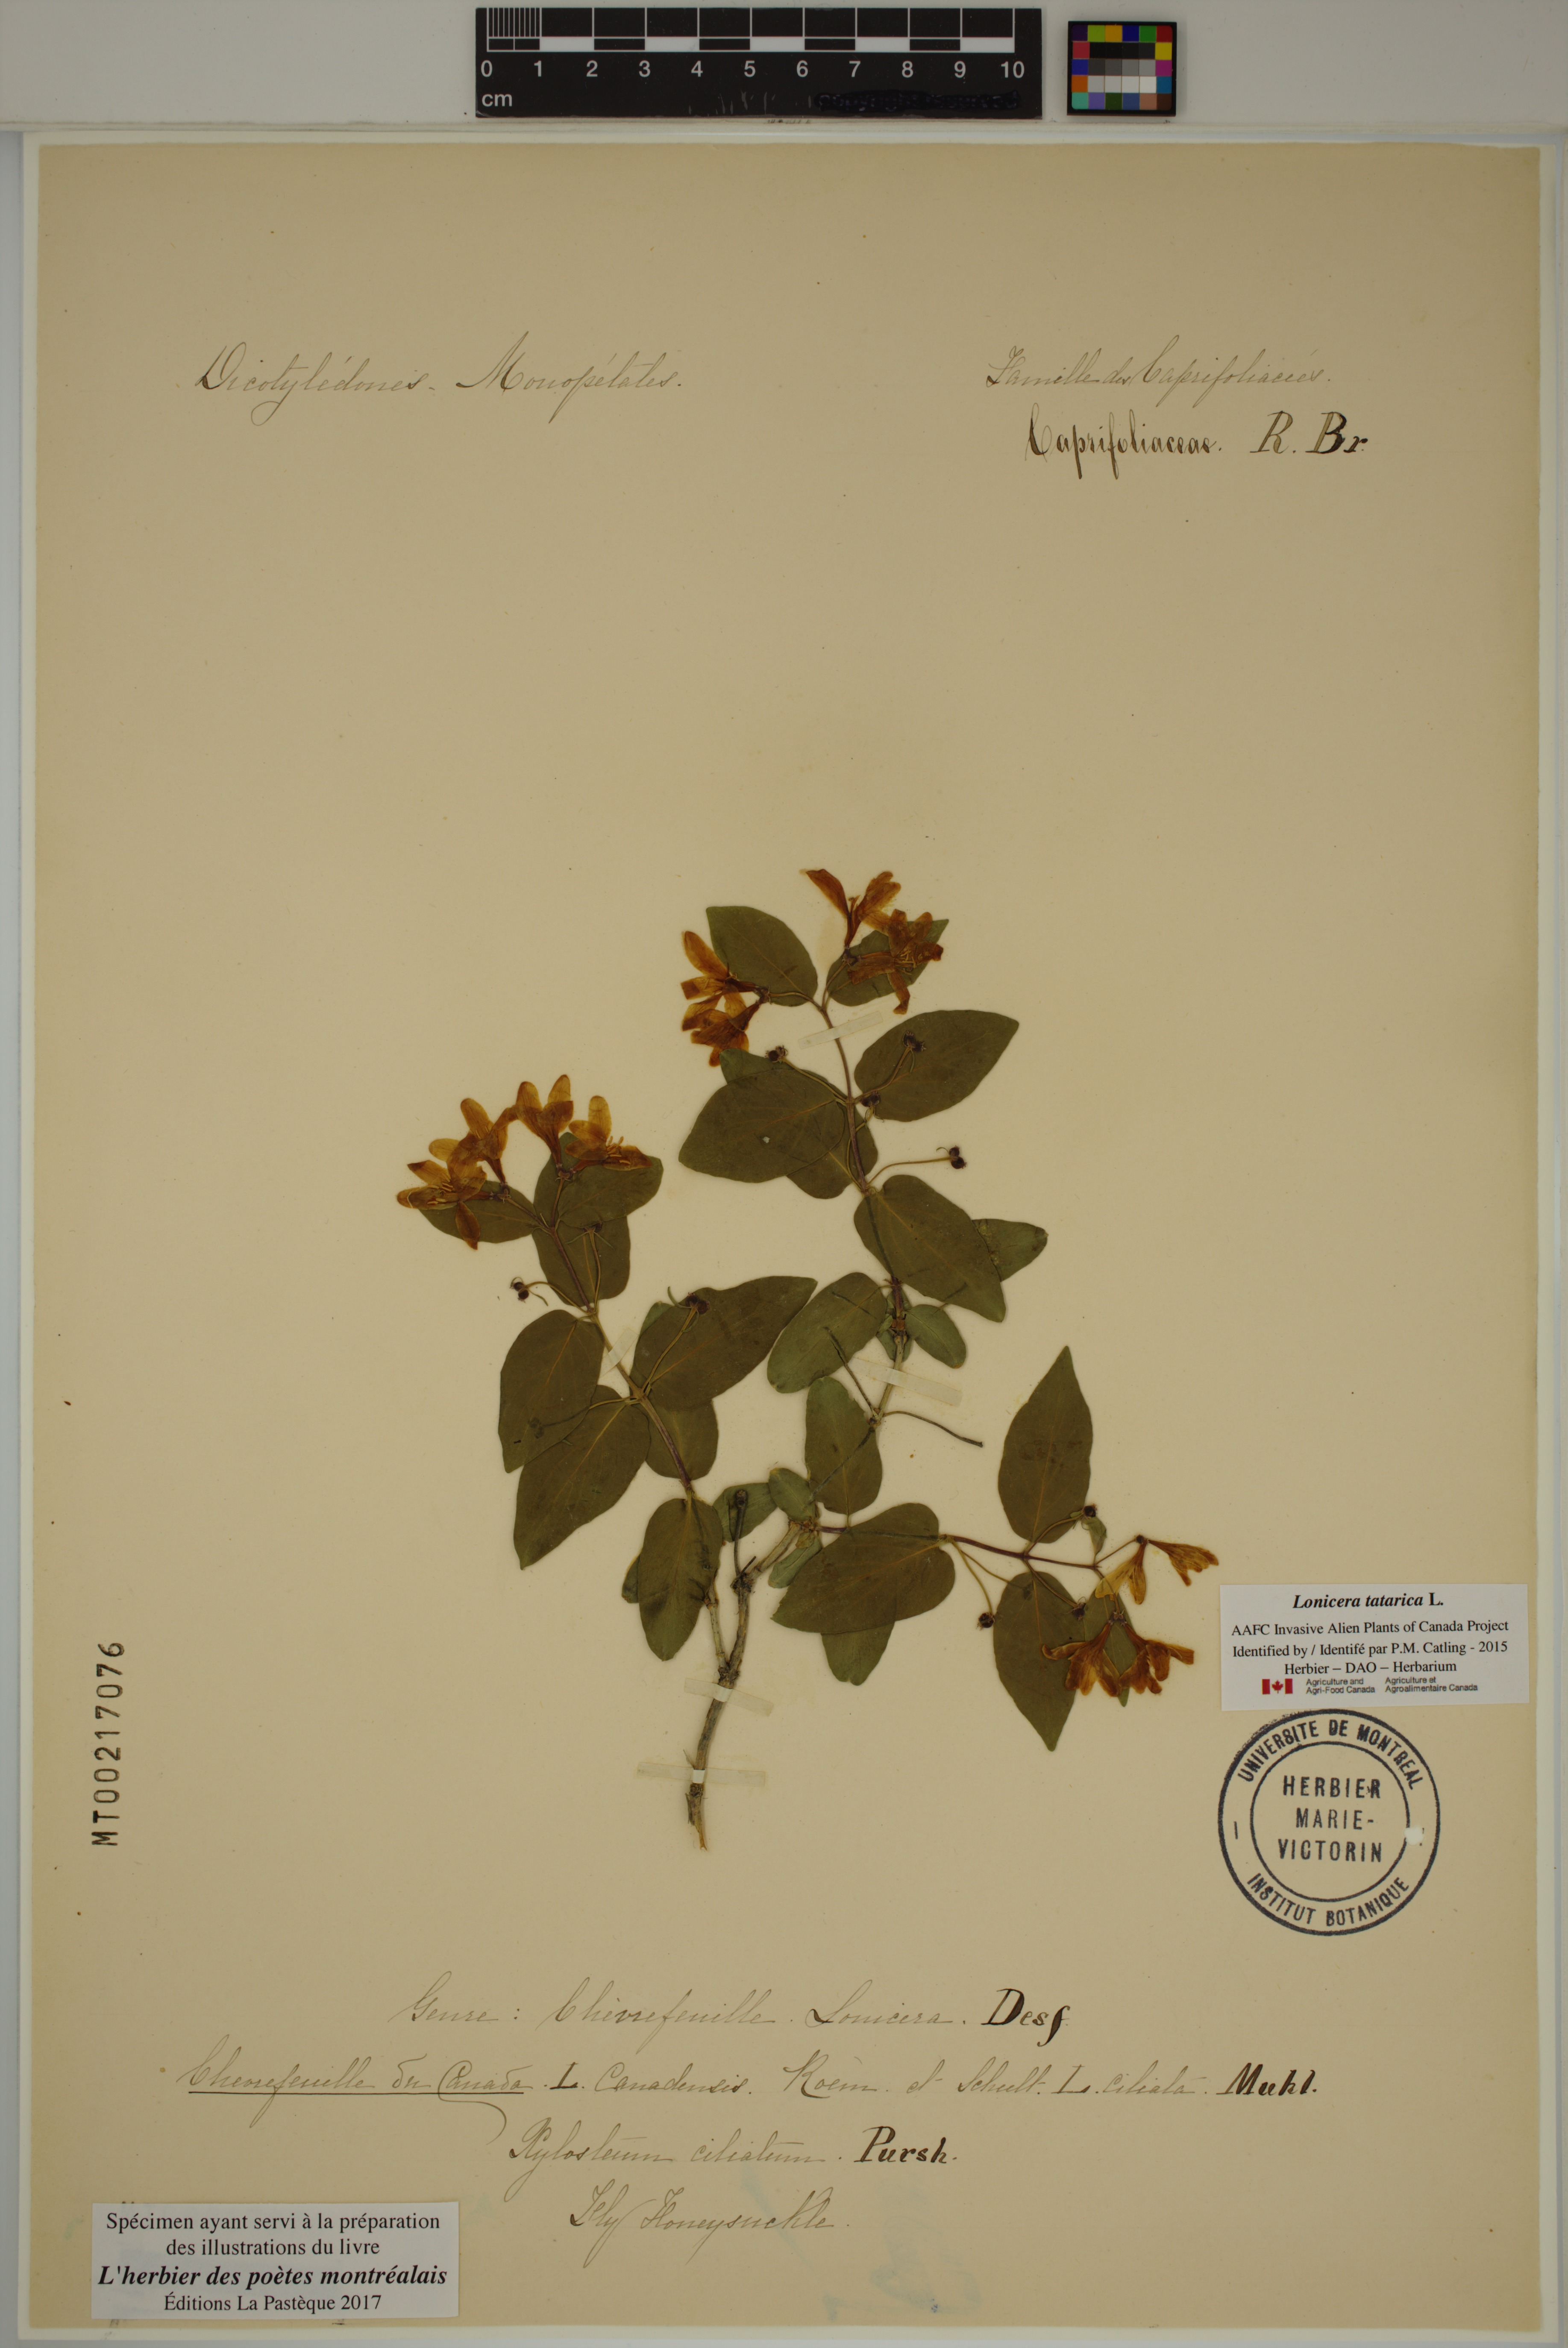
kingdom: Plantae
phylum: Tracheophyta
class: Magnoliopsida
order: Dipsacales
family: Caprifoliaceae
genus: Lonicera
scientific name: Lonicera tatarica
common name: Tatarian honeysuckle
